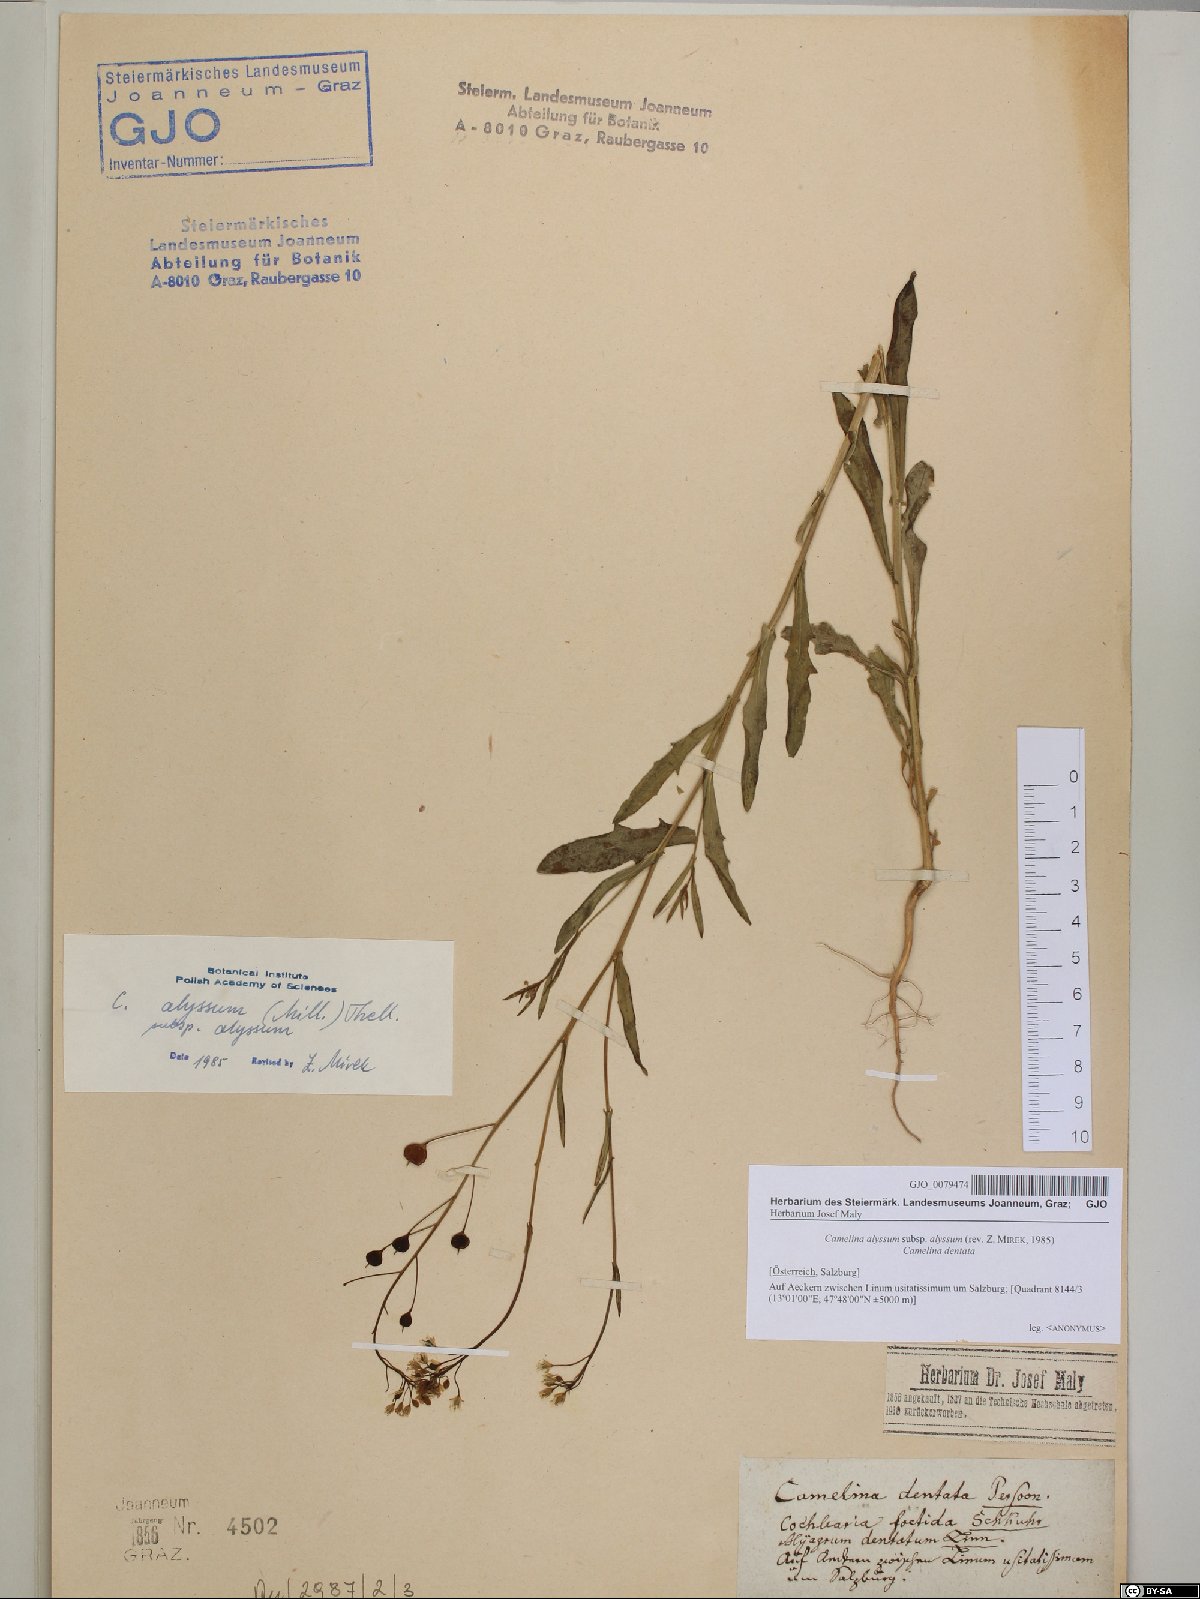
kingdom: Plantae
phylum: Tracheophyta
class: Magnoliopsida
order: Brassicales
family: Brassicaceae
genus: Camelina
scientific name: Camelina alyssum
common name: Gold-of-pleasure
